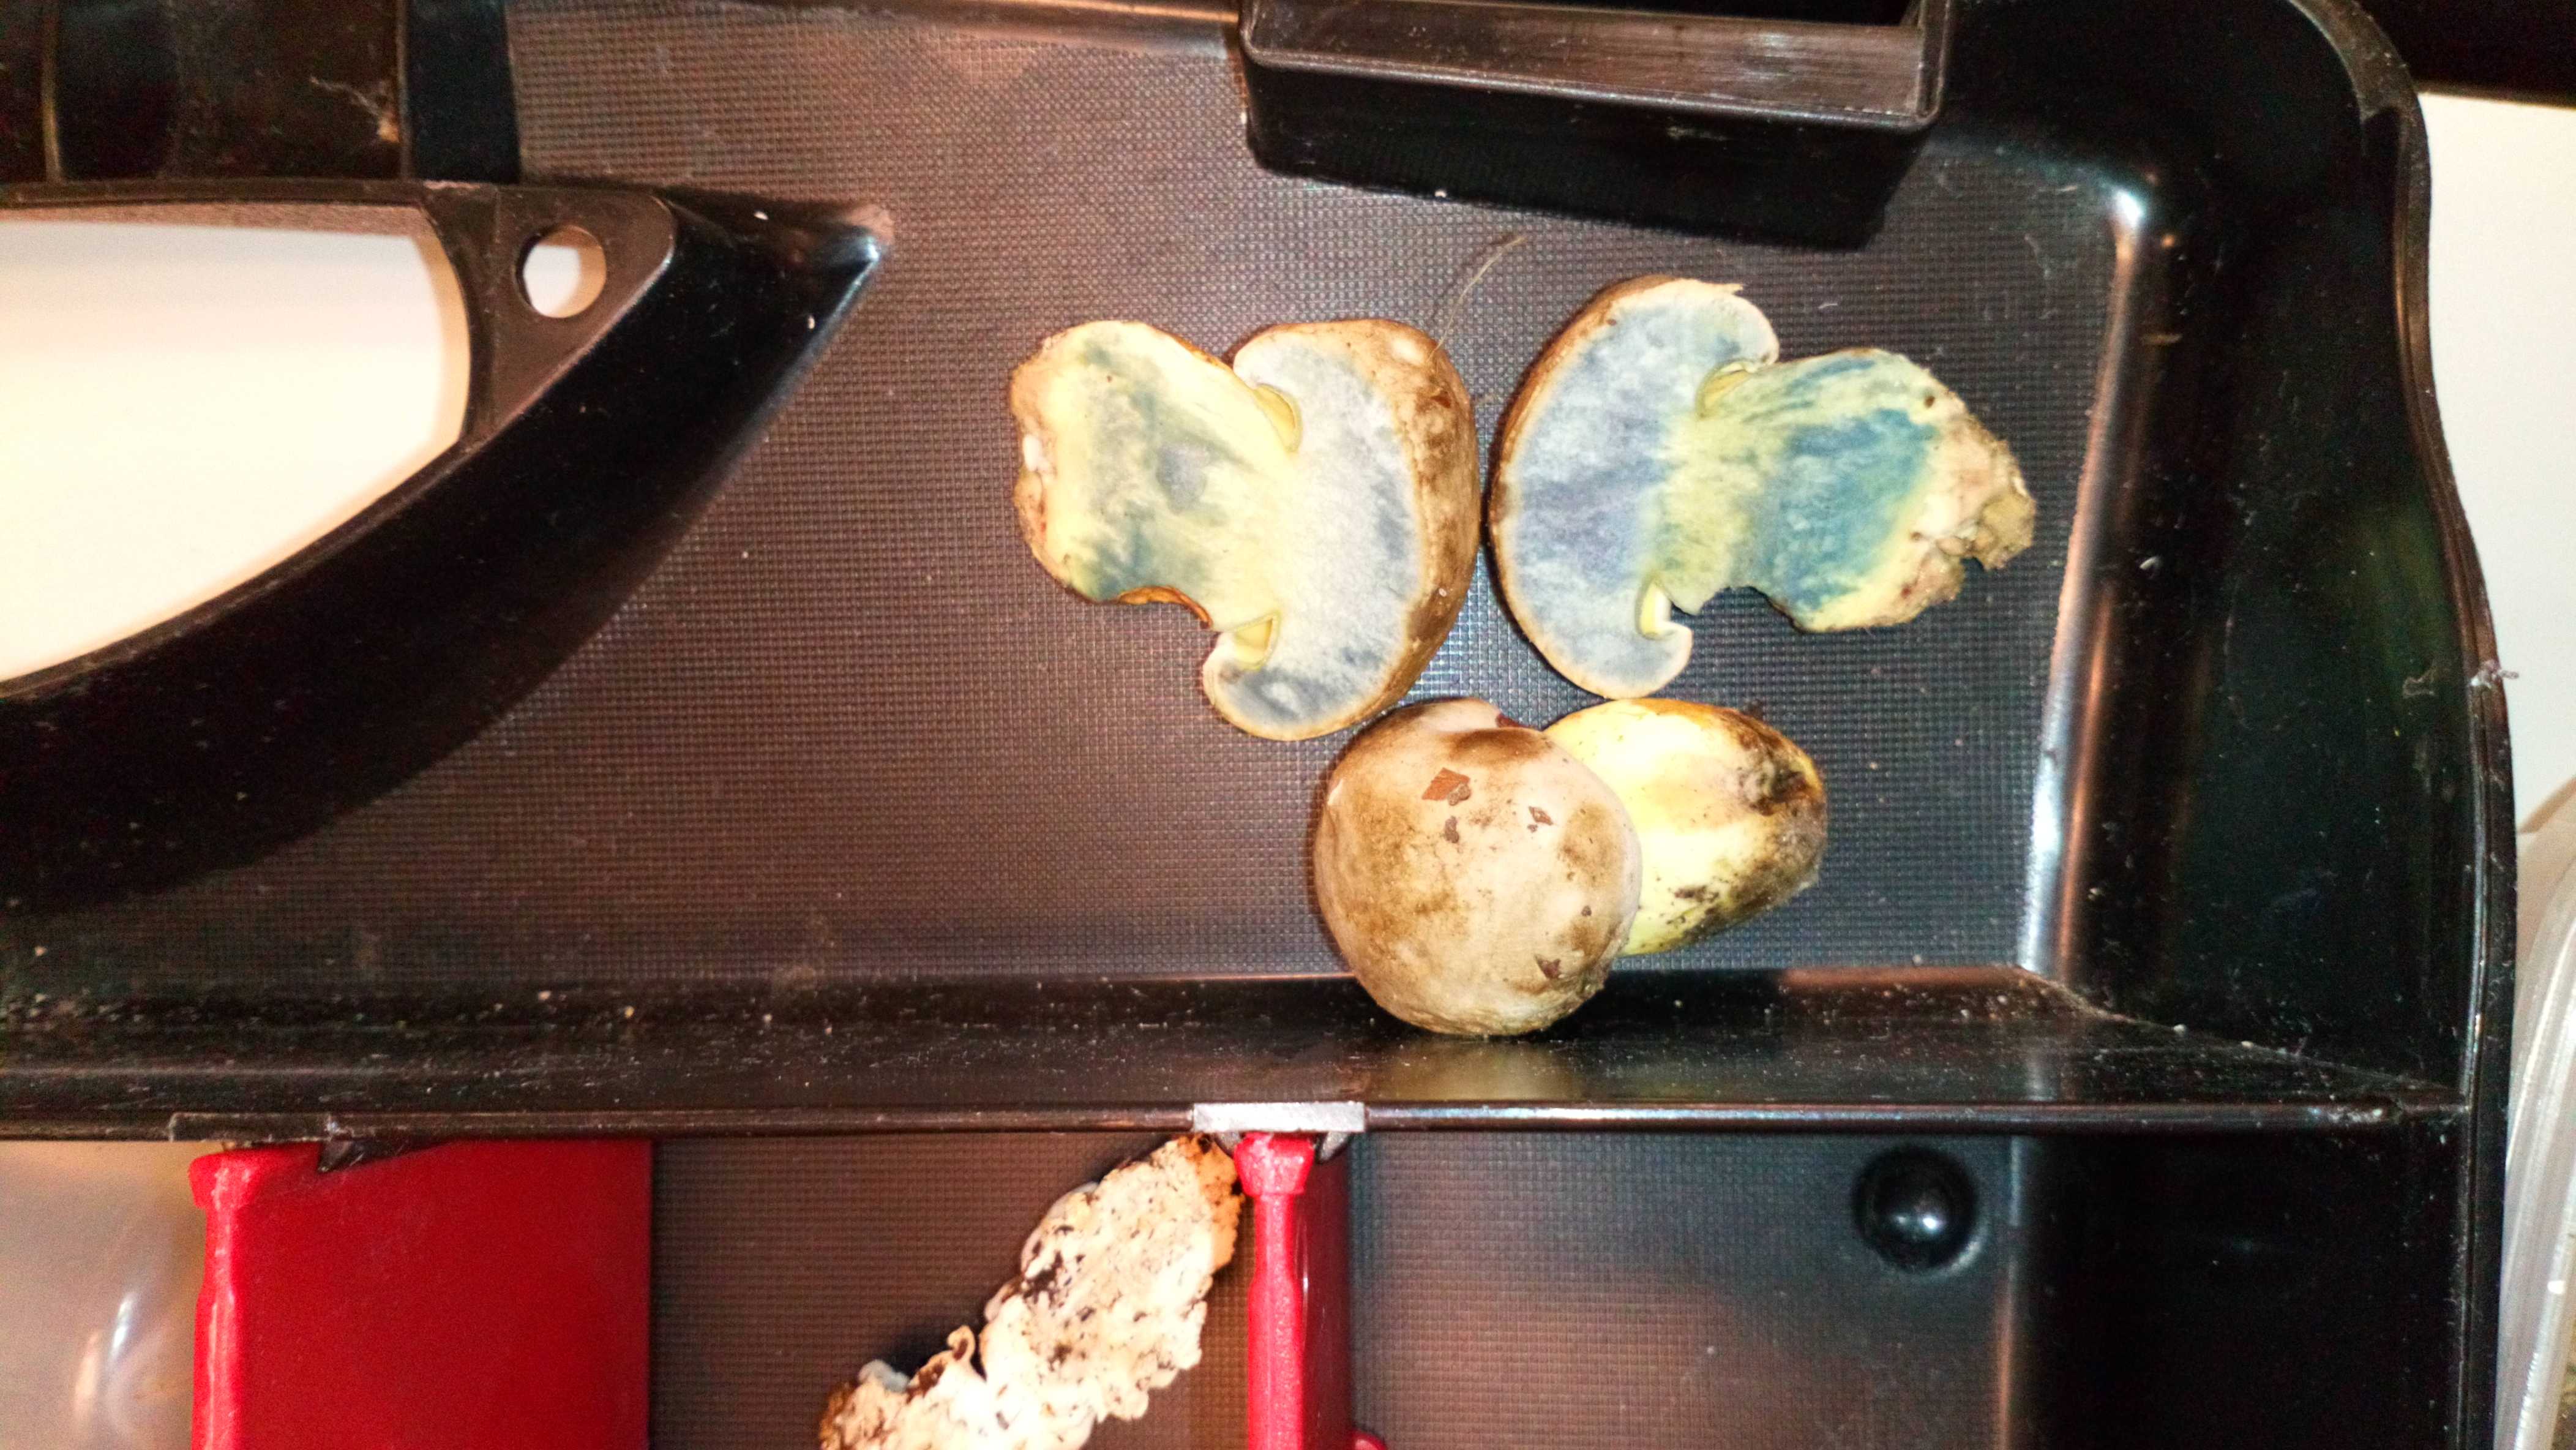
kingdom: Fungi
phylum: Basidiomycota
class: Agaricomycetes
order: Boletales
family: Boletaceae
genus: Caloboletus
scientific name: Caloboletus radicans
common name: rod-rørhat
